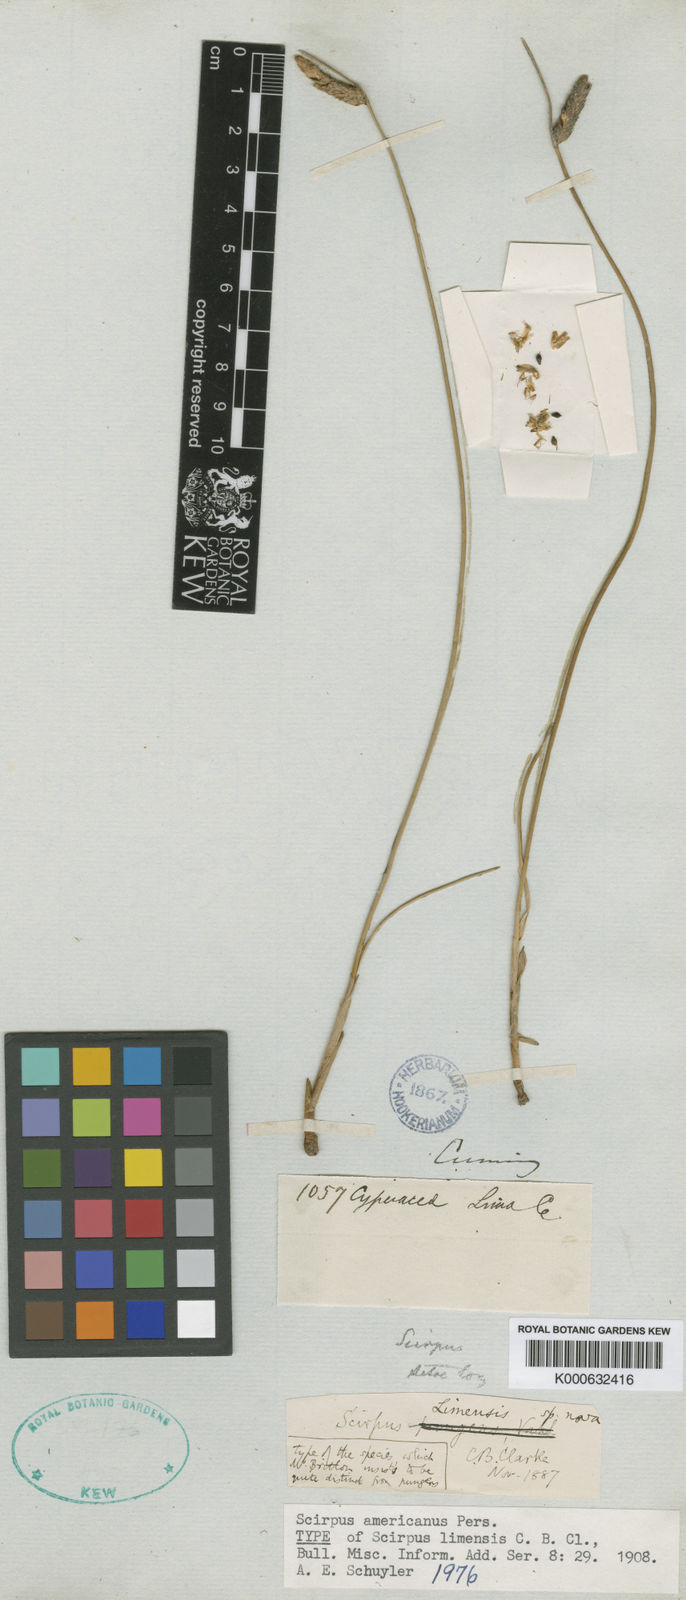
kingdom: Plantae
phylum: Tracheophyta
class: Liliopsida
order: Poales
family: Cyperaceae
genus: Schoenoplectus
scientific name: Schoenoplectus
